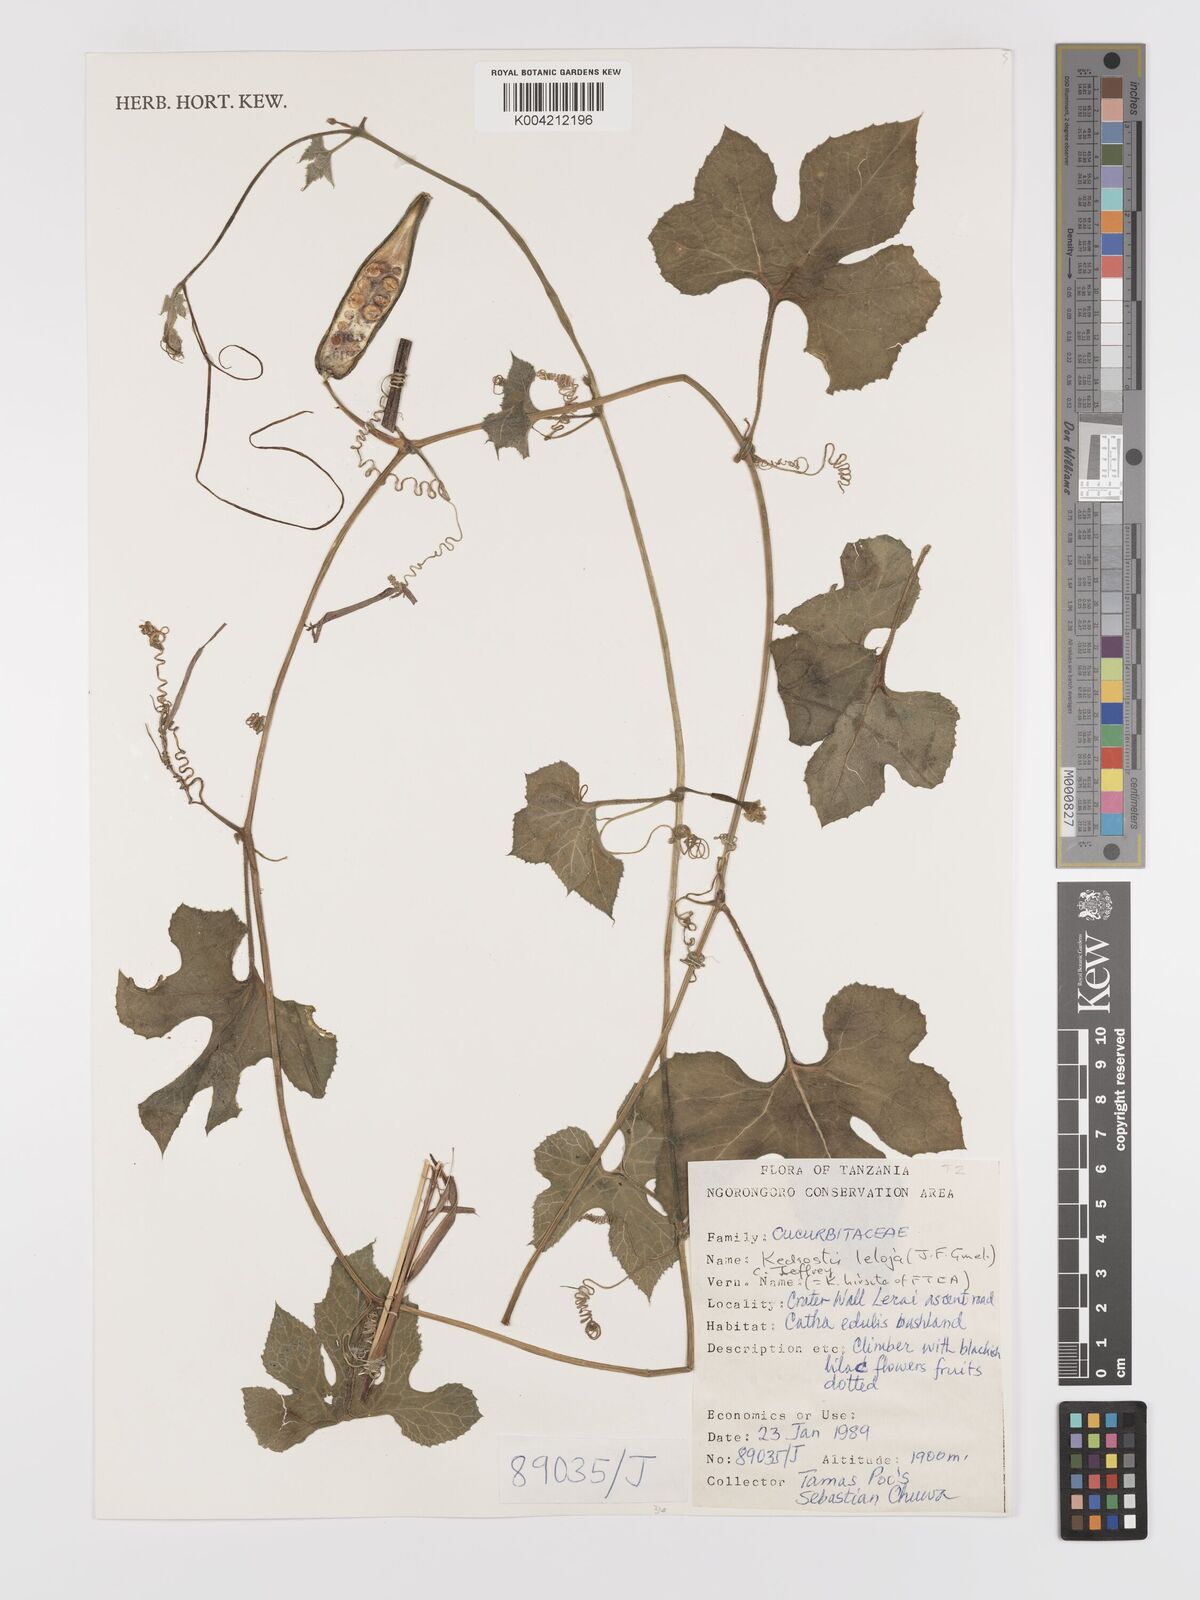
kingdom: Plantae
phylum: Tracheophyta
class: Magnoliopsida
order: Cucurbitales
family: Cucurbitaceae
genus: Kedrostis
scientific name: Kedrostis leloja
